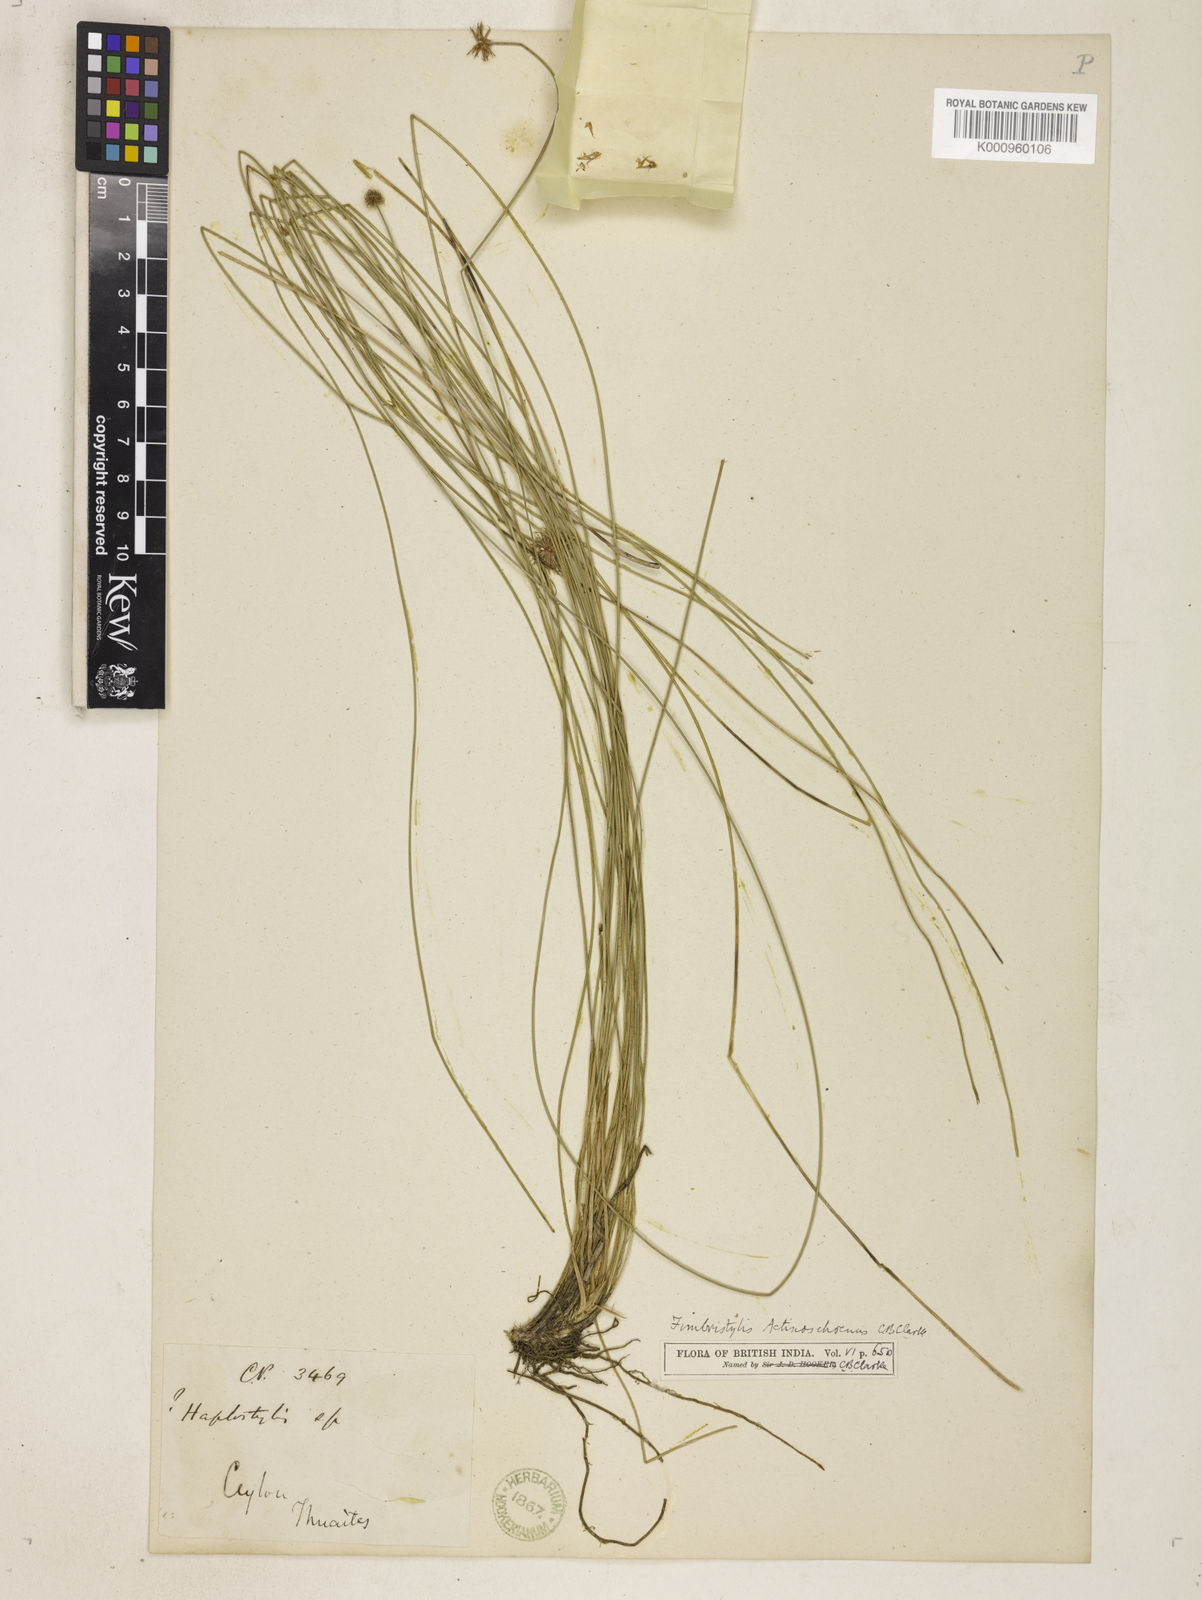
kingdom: Plantae
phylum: Tracheophyta
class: Liliopsida
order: Poales
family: Cyperaceae
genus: Actinoschoenus
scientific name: Actinoschoenus aphyllus
